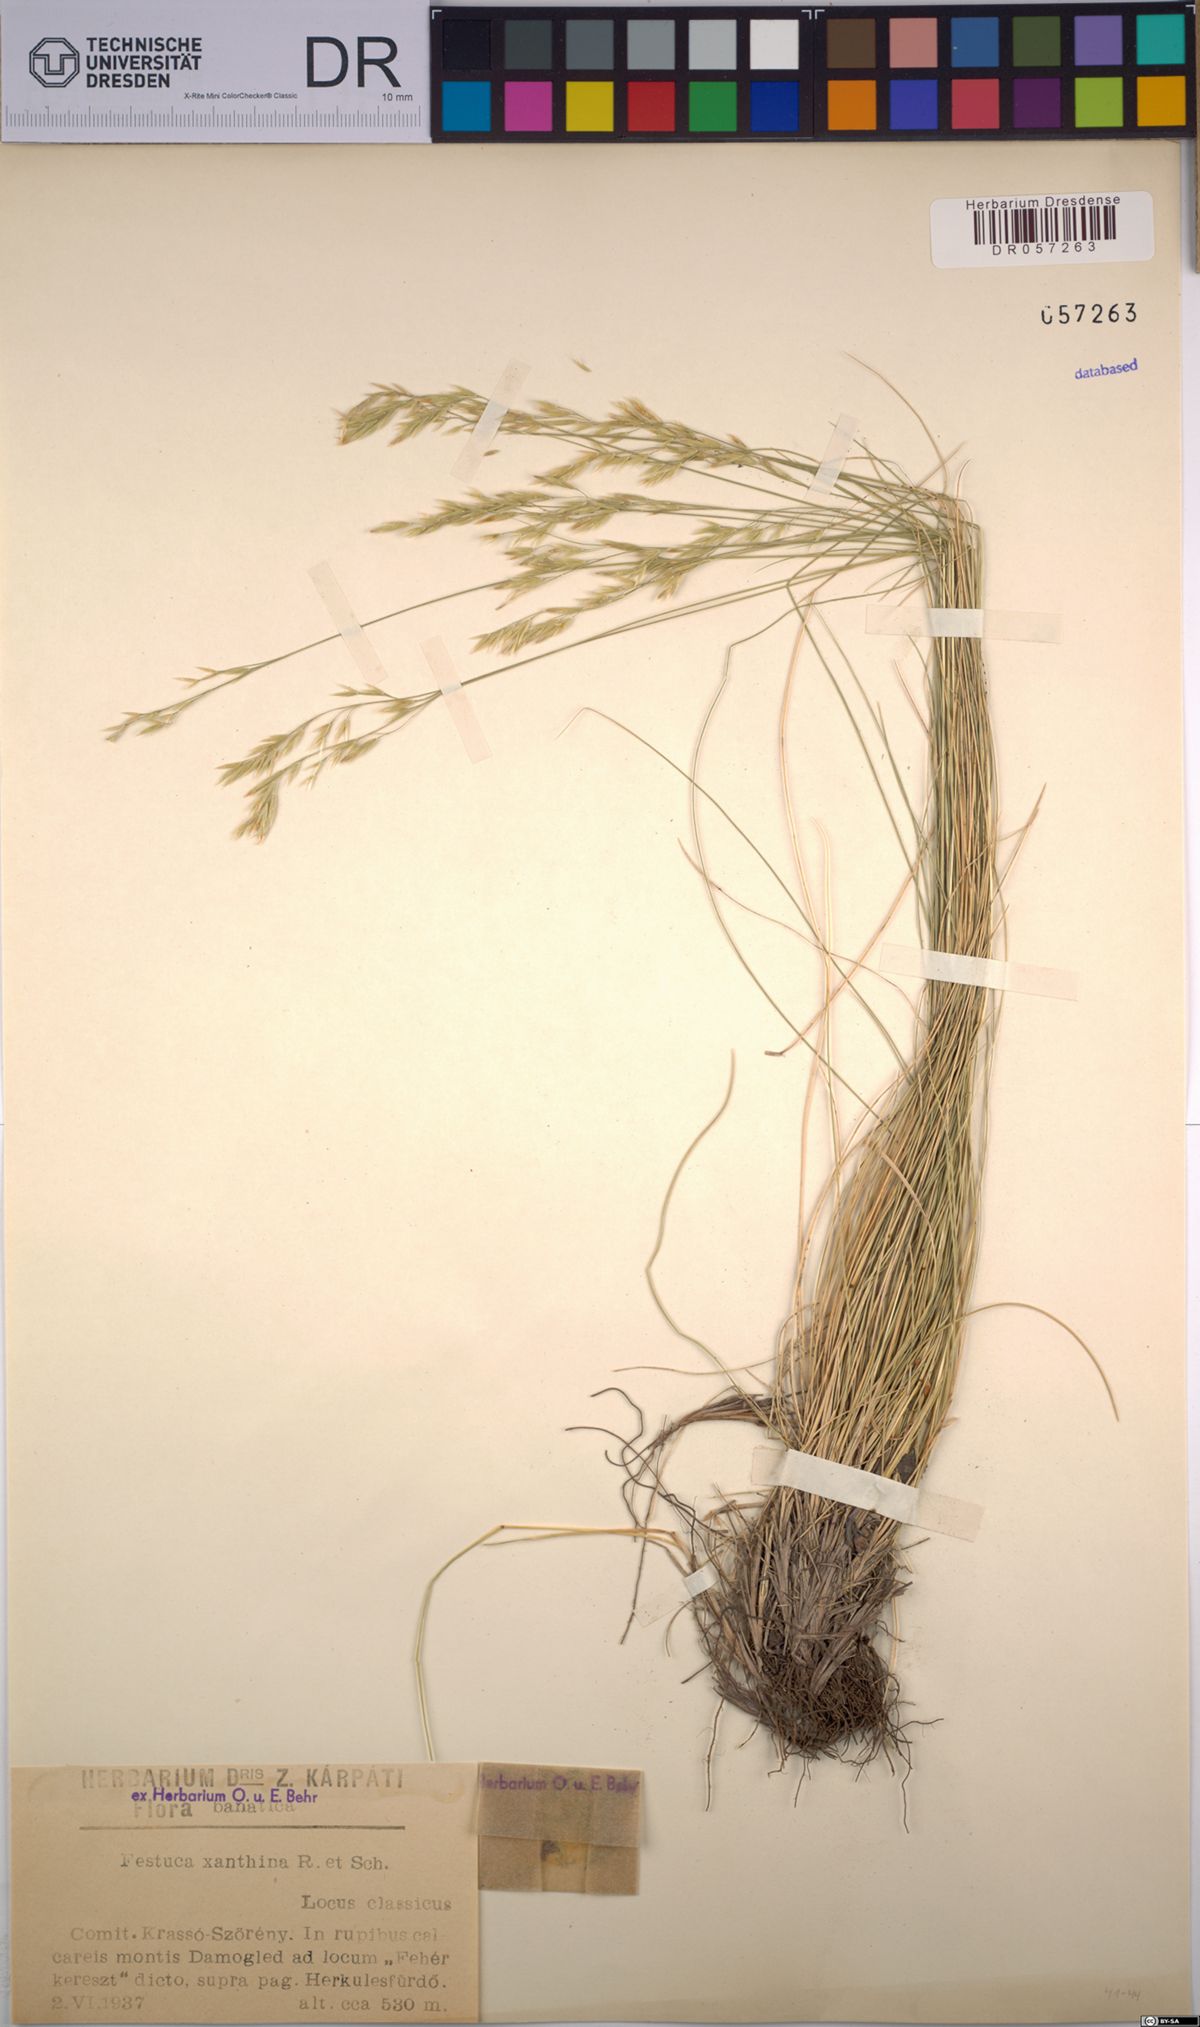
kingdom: Plantae
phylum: Tracheophyta
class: Liliopsida
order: Poales
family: Poaceae
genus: Festuca
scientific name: Festuca xanthina
